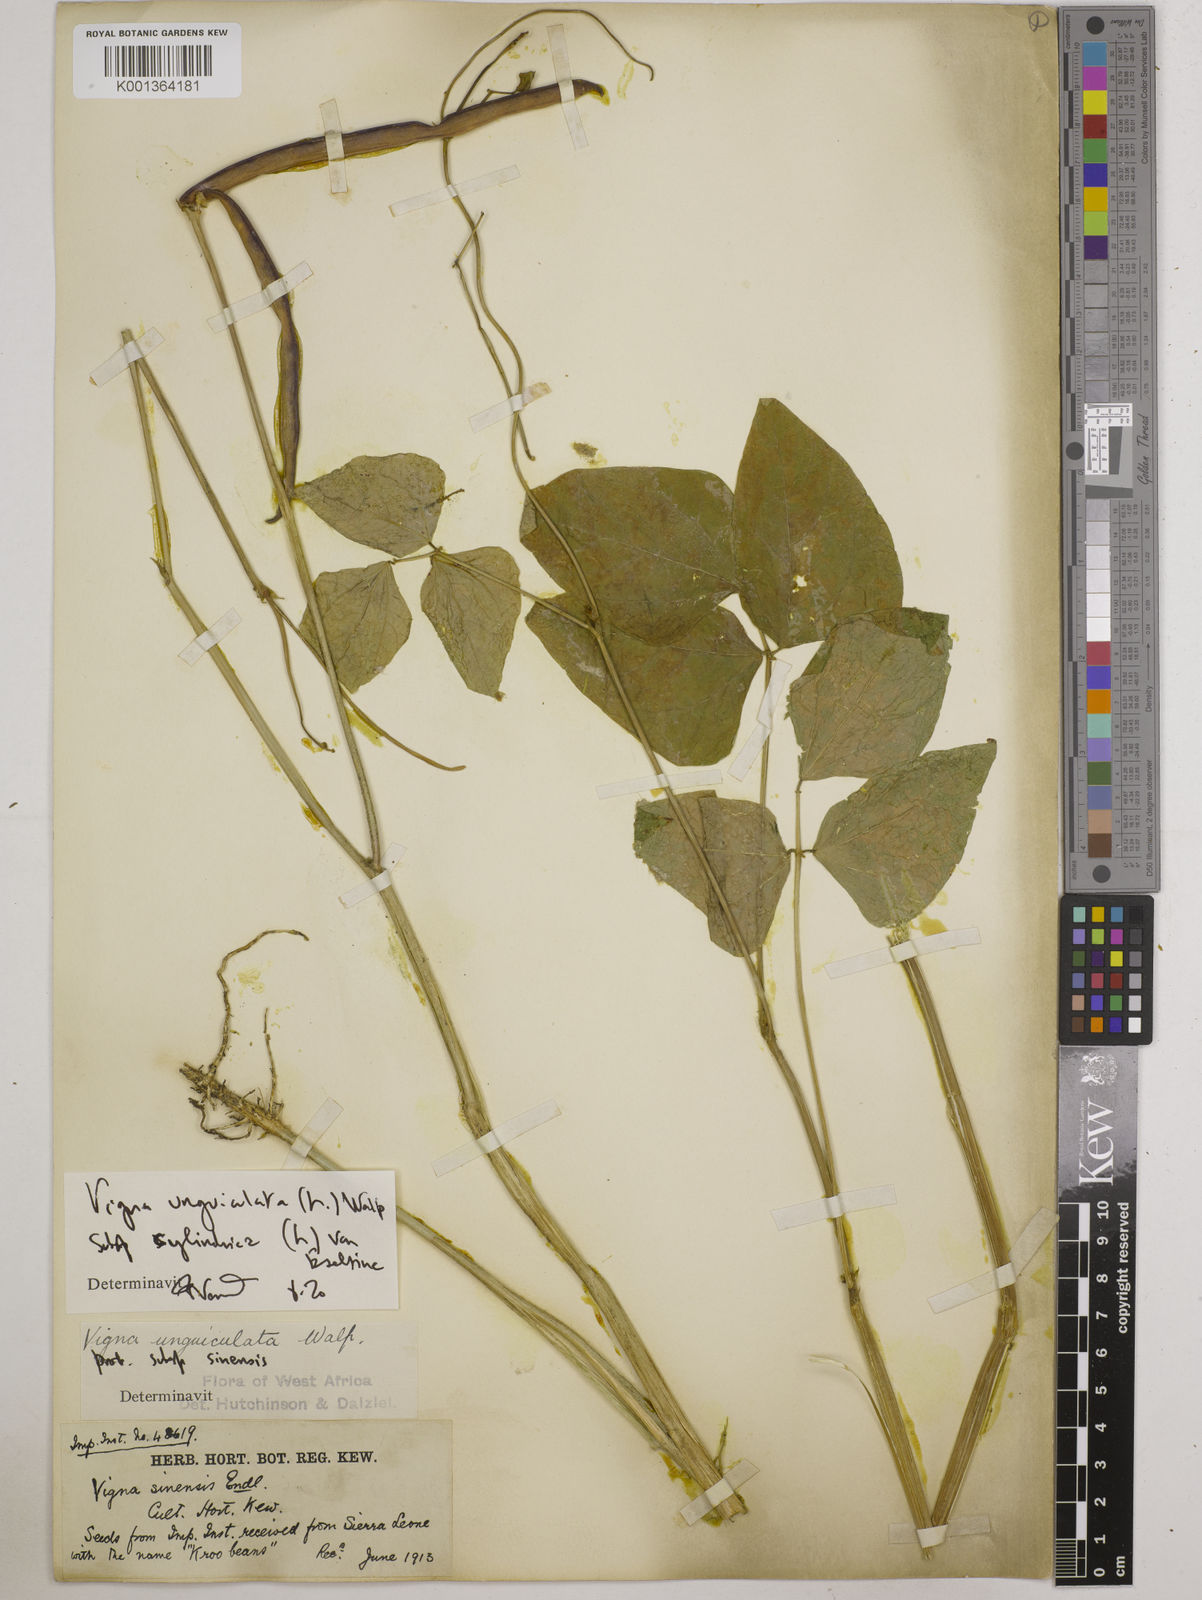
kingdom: Plantae
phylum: Tracheophyta
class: Magnoliopsida
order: Fabales
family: Fabaceae
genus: Vigna
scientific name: Vigna
